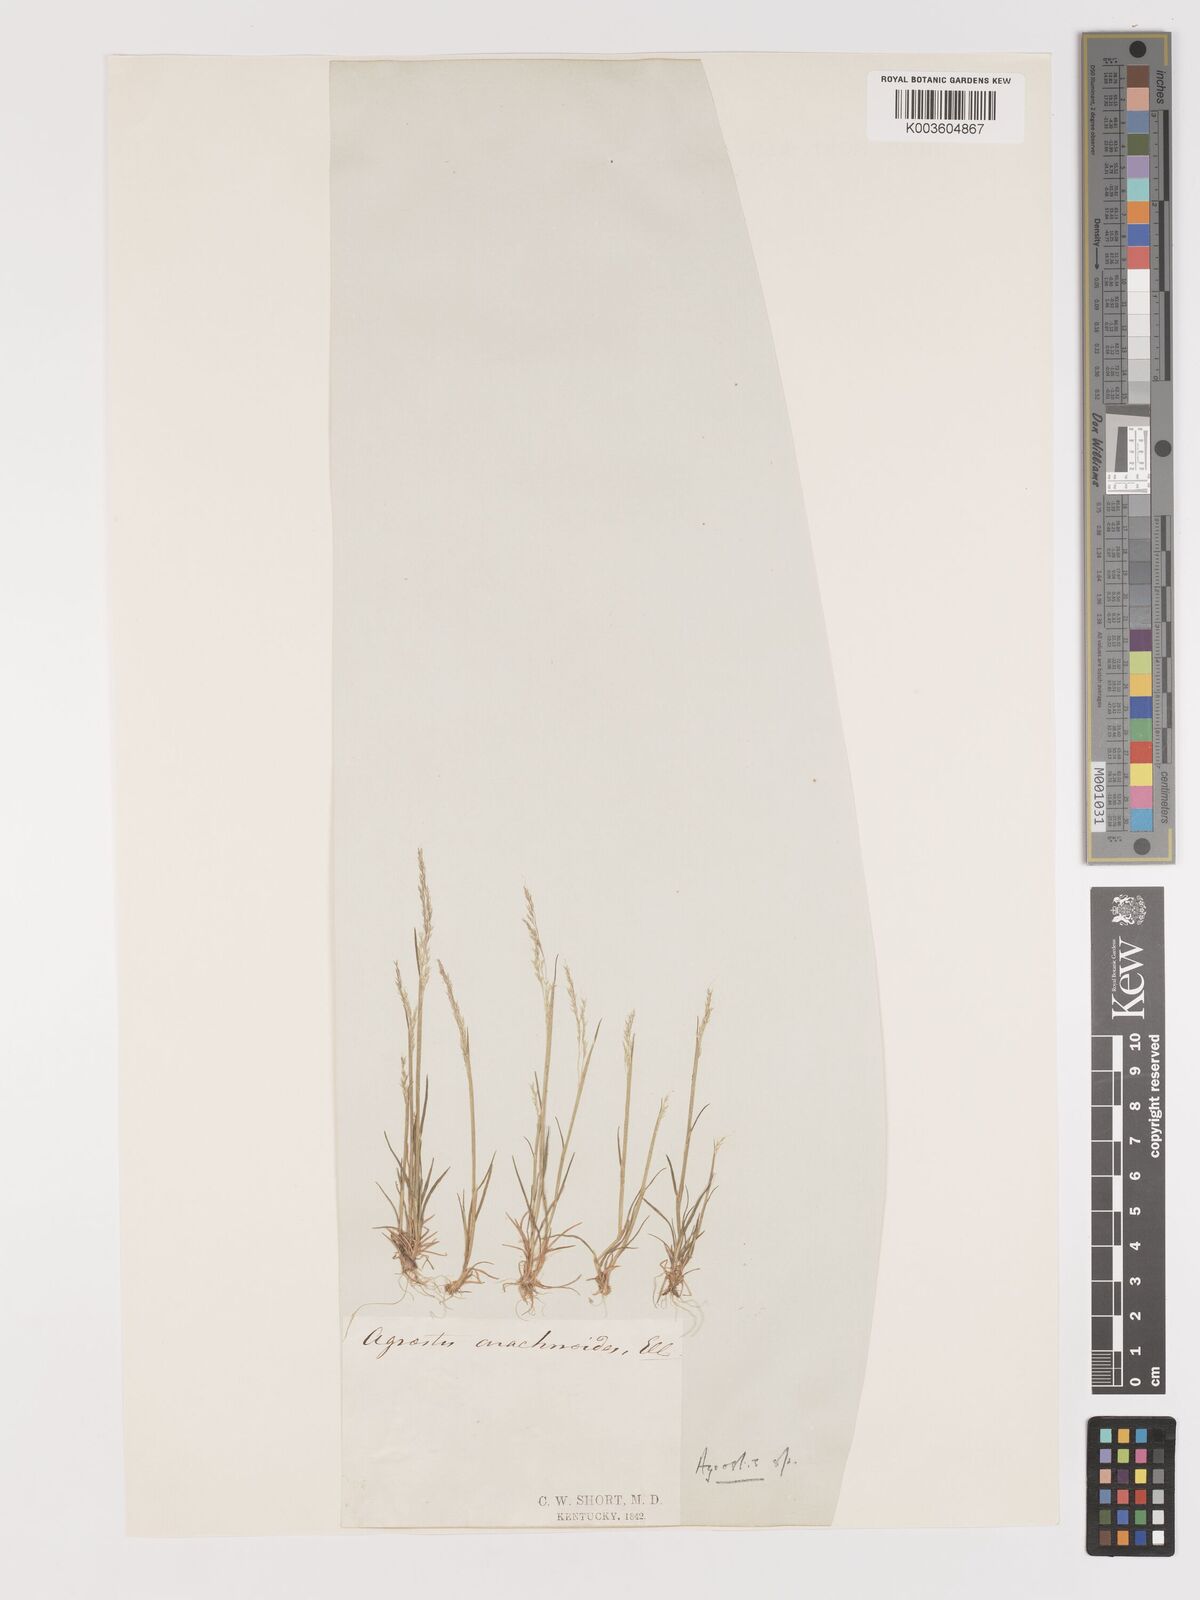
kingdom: Plantae
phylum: Tracheophyta
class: Liliopsida
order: Poales
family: Poaceae
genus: Agrostis
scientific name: Agrostis
